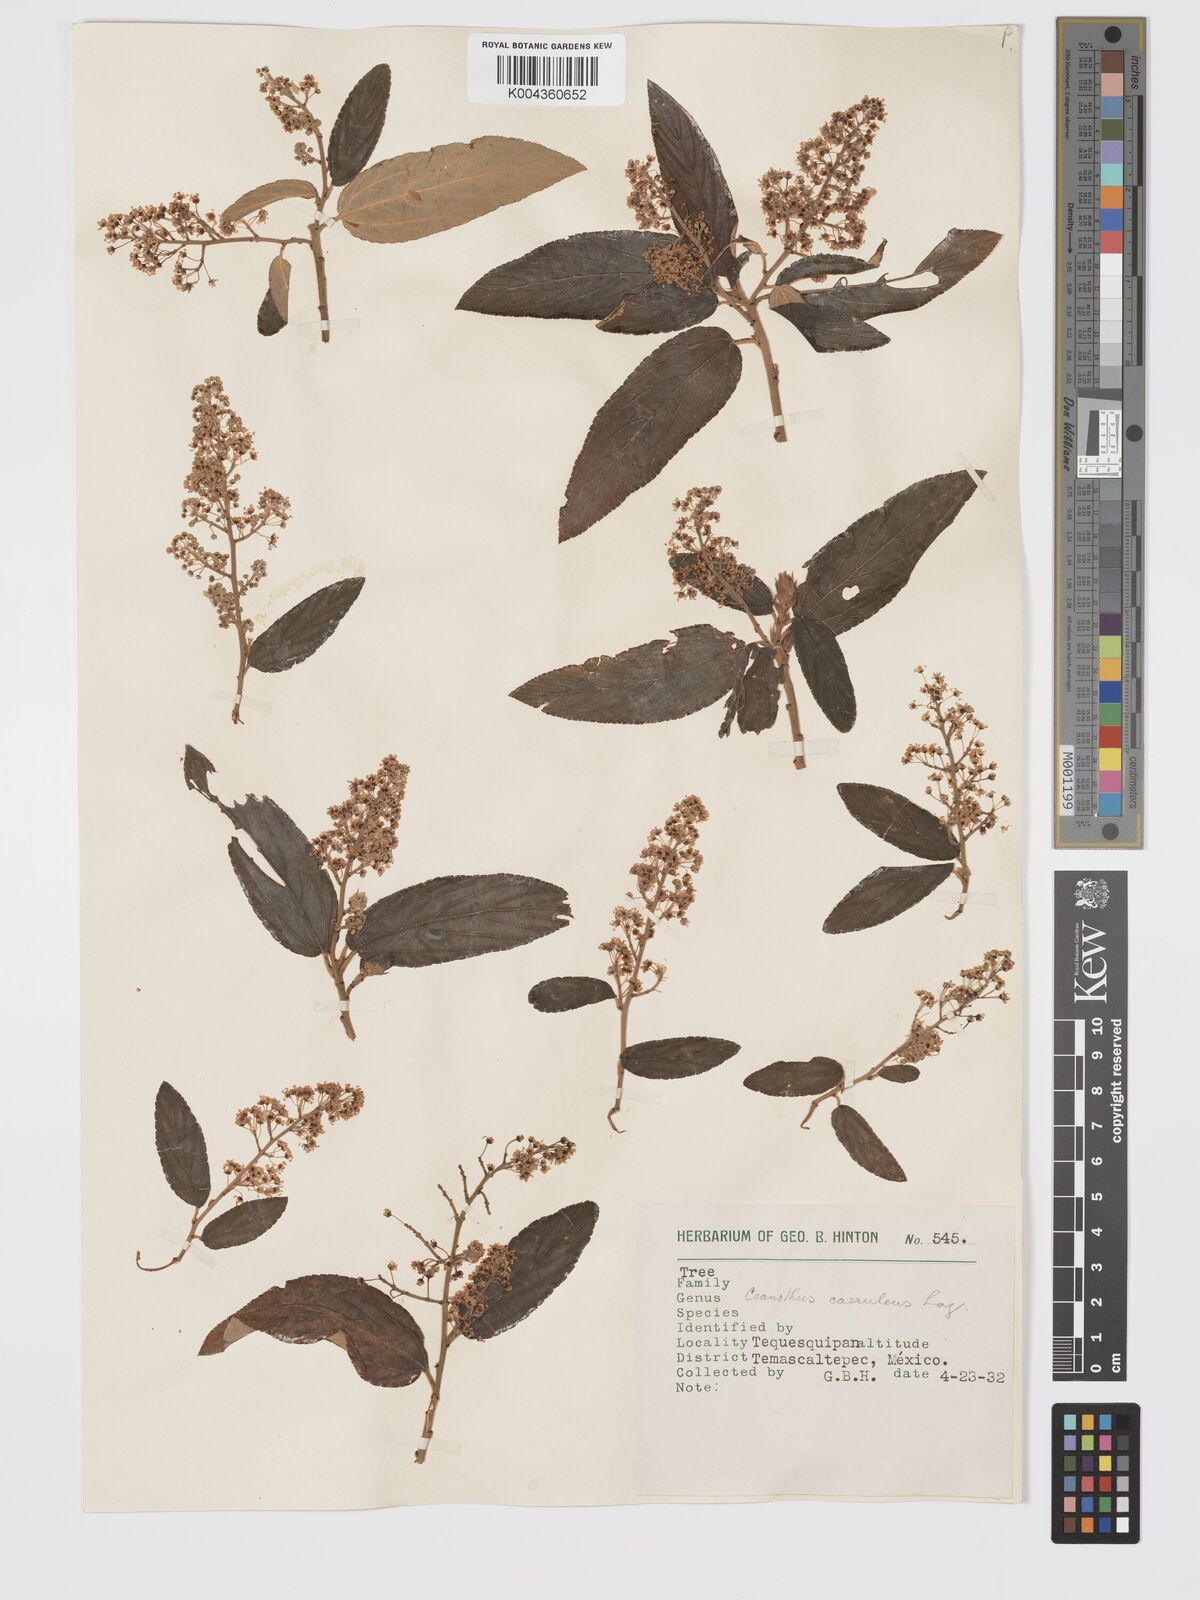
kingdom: Plantae
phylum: Tracheophyta
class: Magnoliopsida
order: Rosales
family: Rhamnaceae
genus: Ceanothus
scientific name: Ceanothus caeruleus
